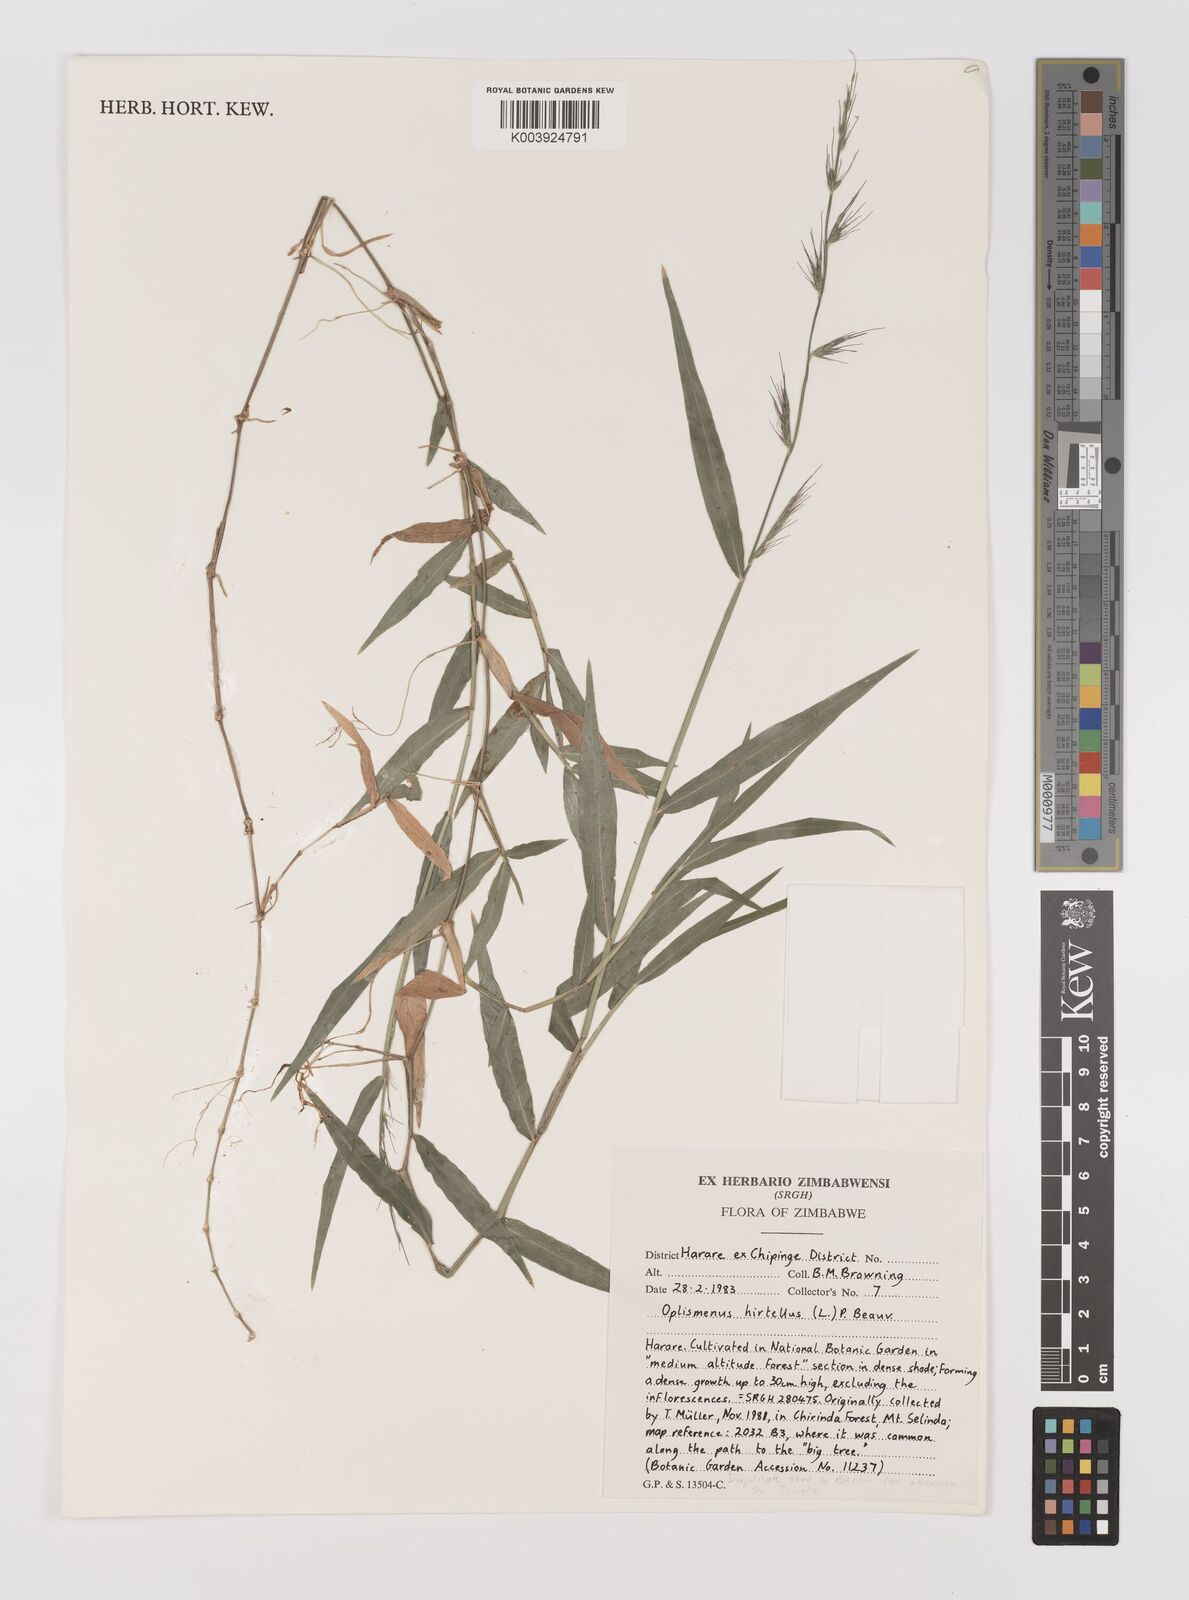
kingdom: Plantae
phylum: Tracheophyta
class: Liliopsida
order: Poales
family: Poaceae
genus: Oplismenus
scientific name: Oplismenus hirtellus
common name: Basketgrass
